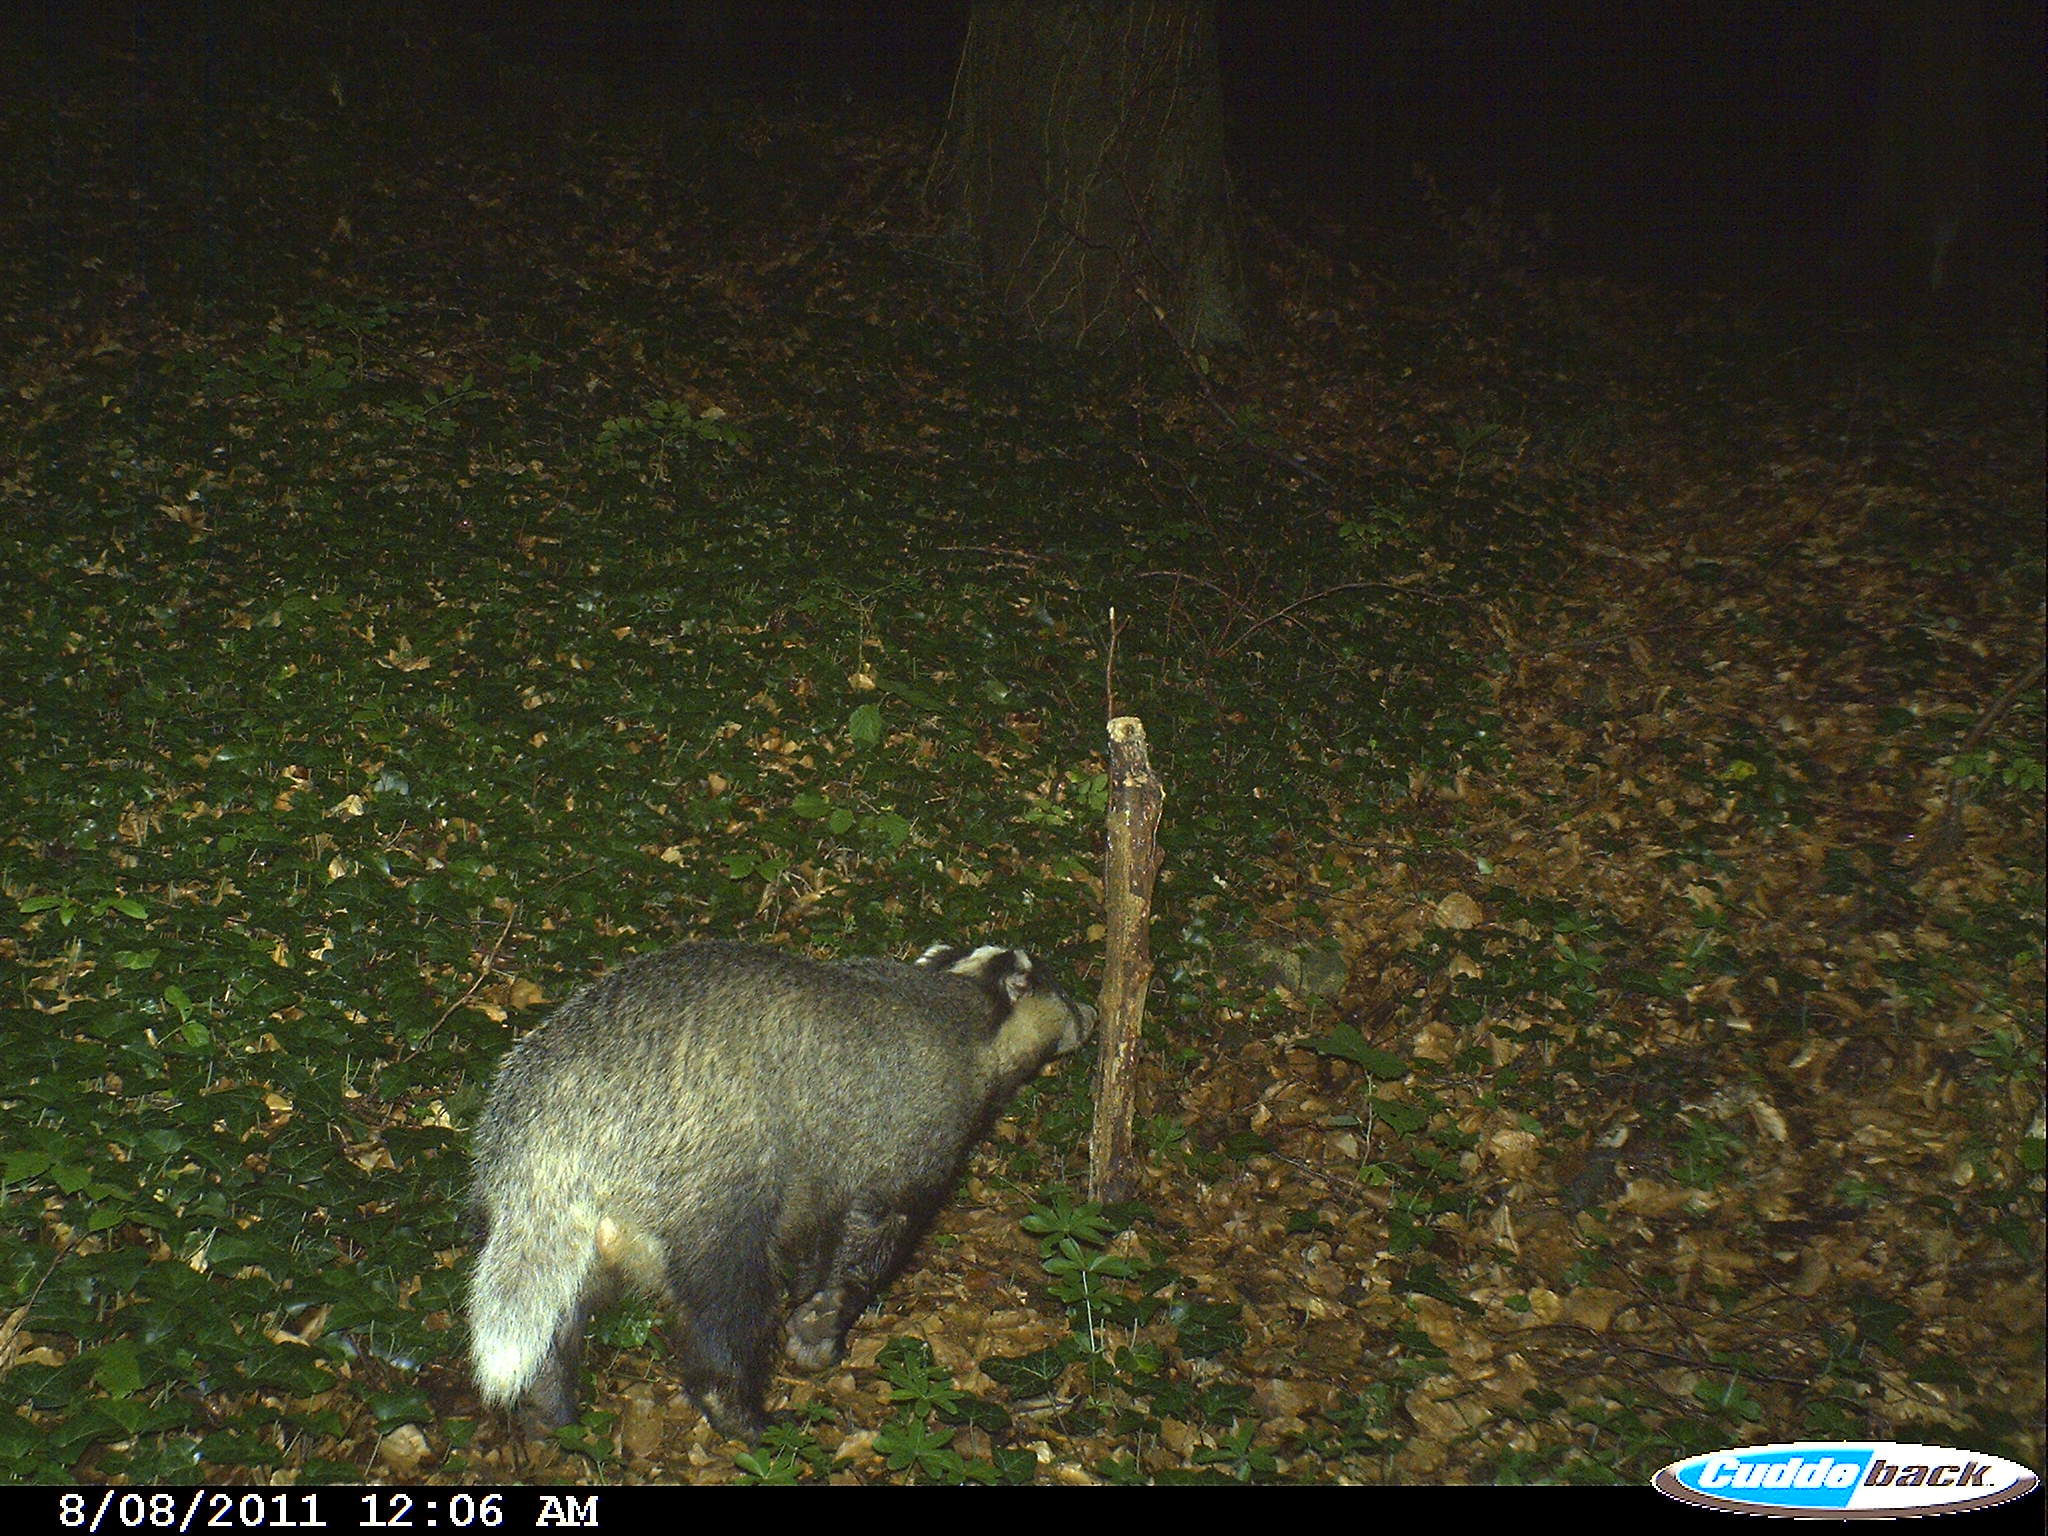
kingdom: Animalia
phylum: Chordata
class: Mammalia
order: Carnivora
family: Mustelidae
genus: Meles
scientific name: Meles meles
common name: Eurasian badger
